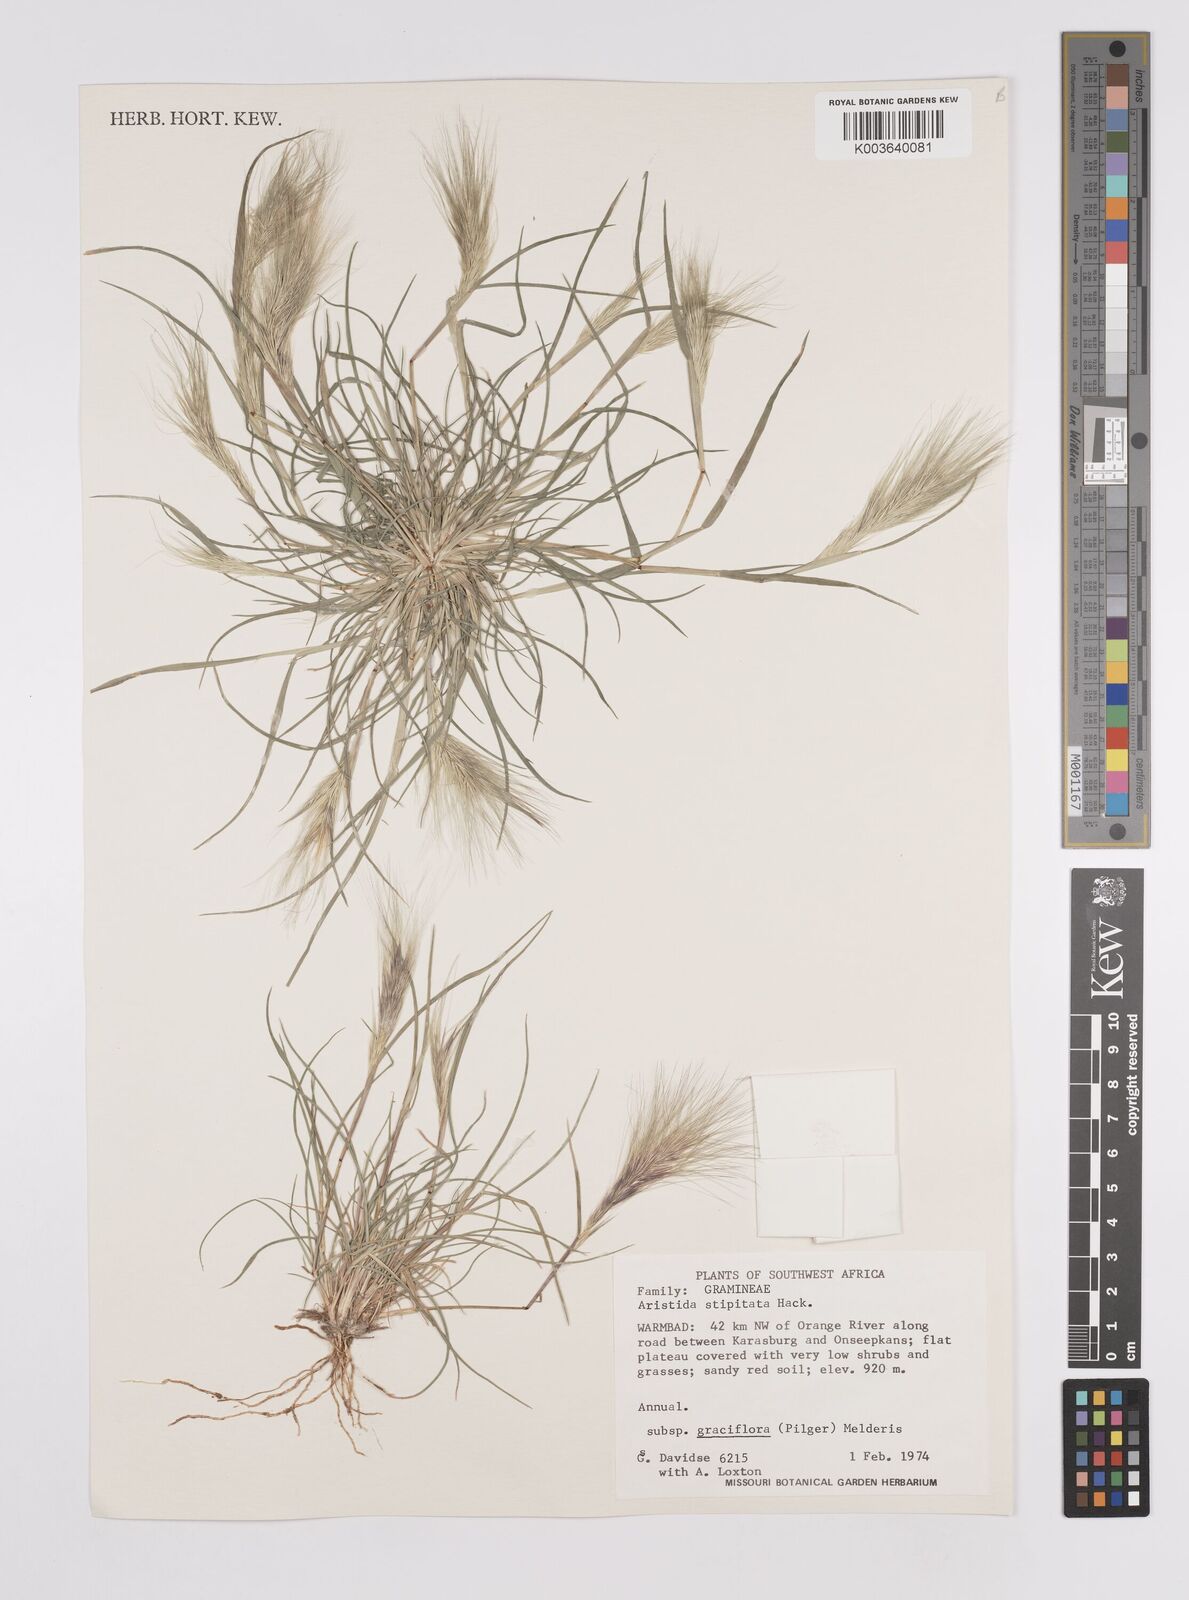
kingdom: Plantae
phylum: Tracheophyta
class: Liliopsida
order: Poales
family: Poaceae
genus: Aristida
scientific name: Aristida stipitata
